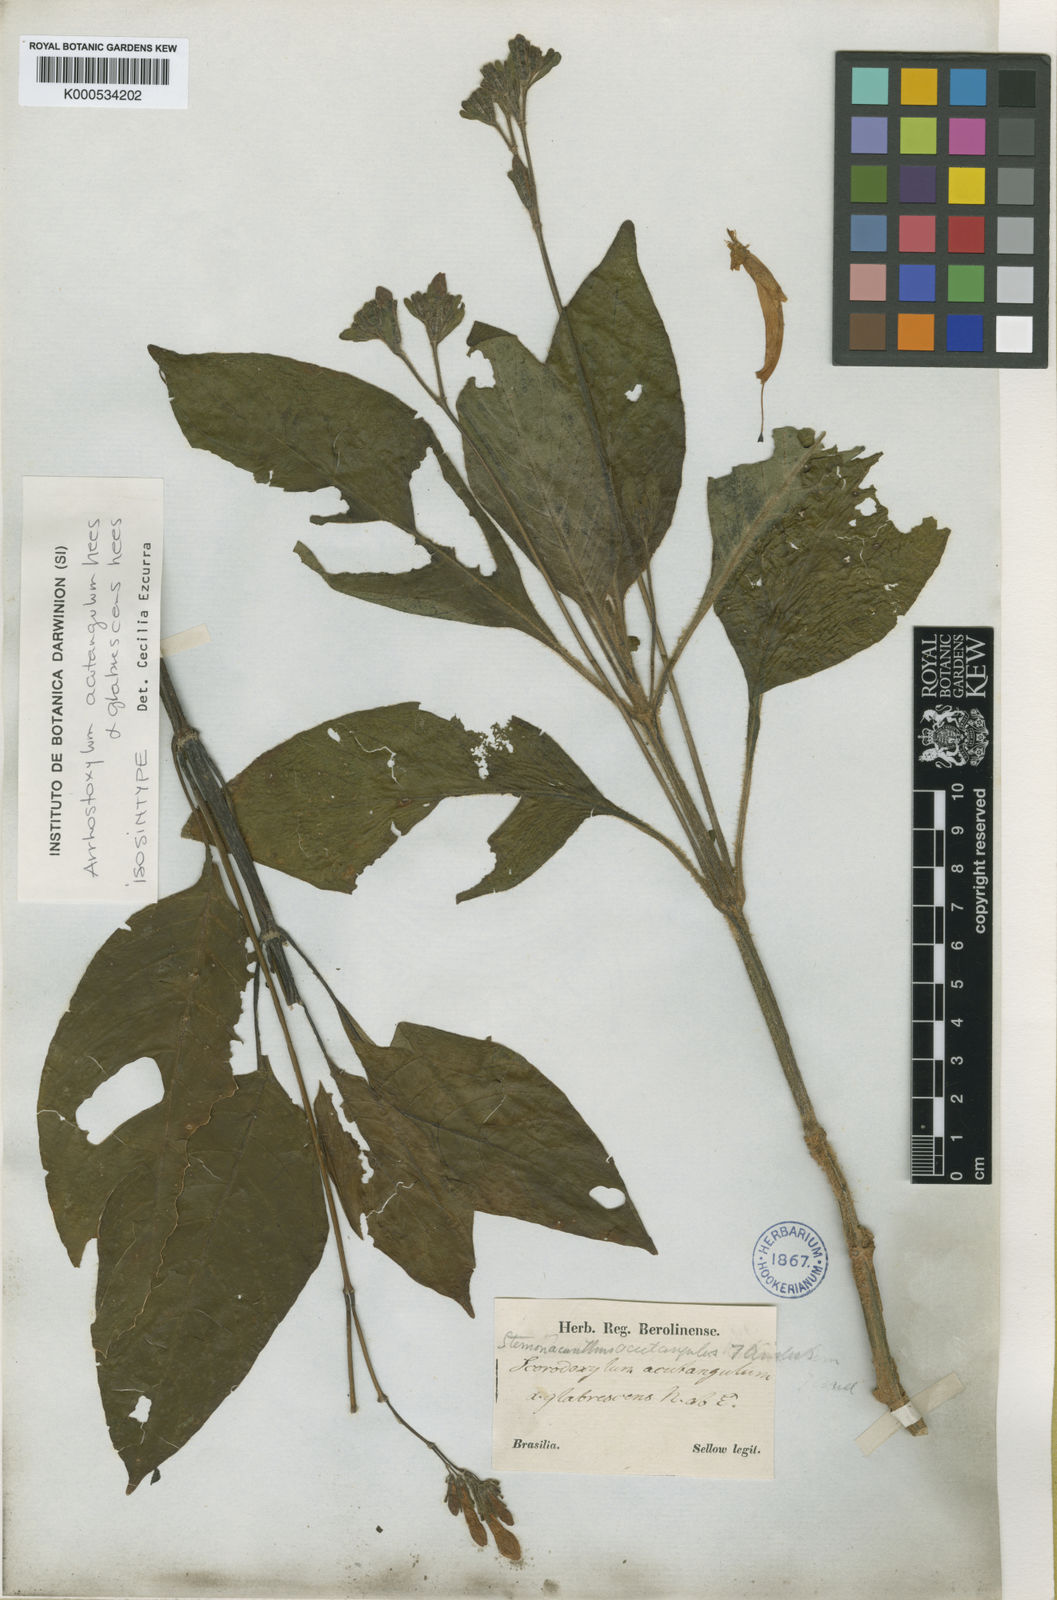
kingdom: Plantae
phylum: Tracheophyta
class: Magnoliopsida
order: Lamiales
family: Acanthaceae
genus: Ruellia
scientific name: Ruellia acutangula
